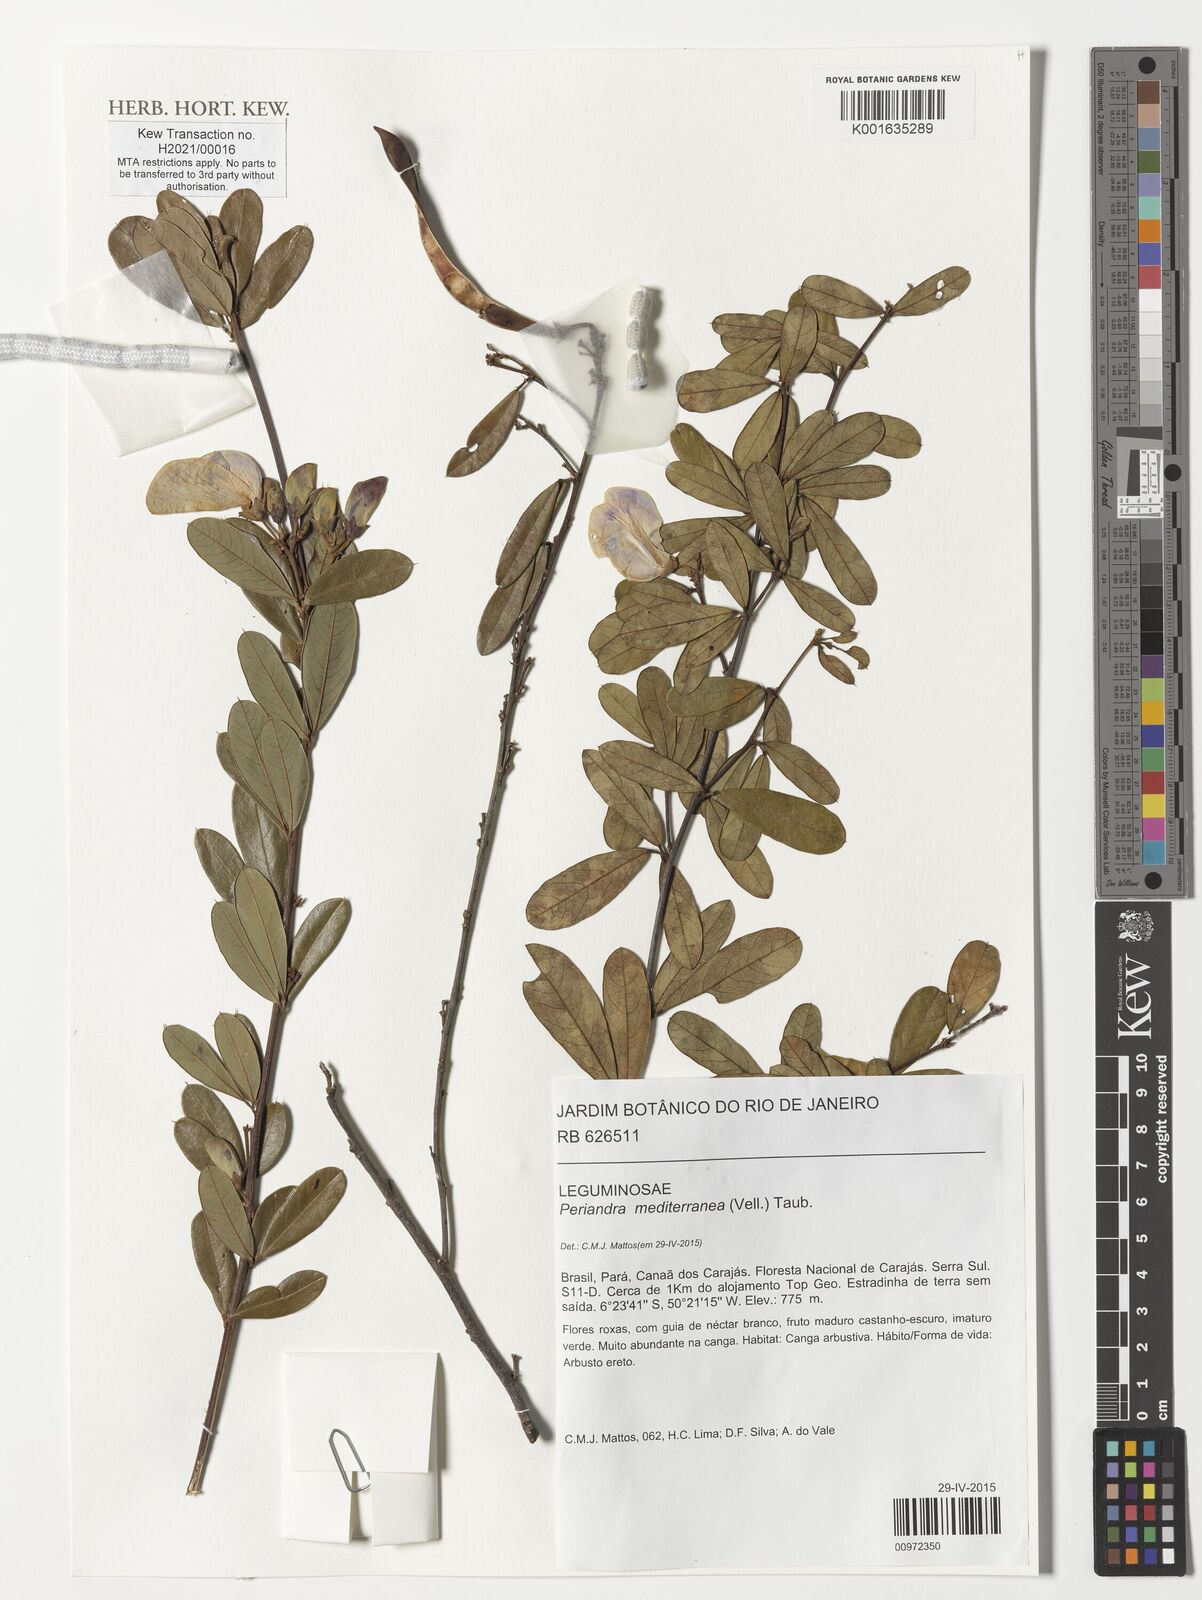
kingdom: Plantae
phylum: Tracheophyta
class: Magnoliopsida
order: Fabales
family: Fabaceae
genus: Periandra
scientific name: Periandra mediterranea
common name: Brazilian licorice
